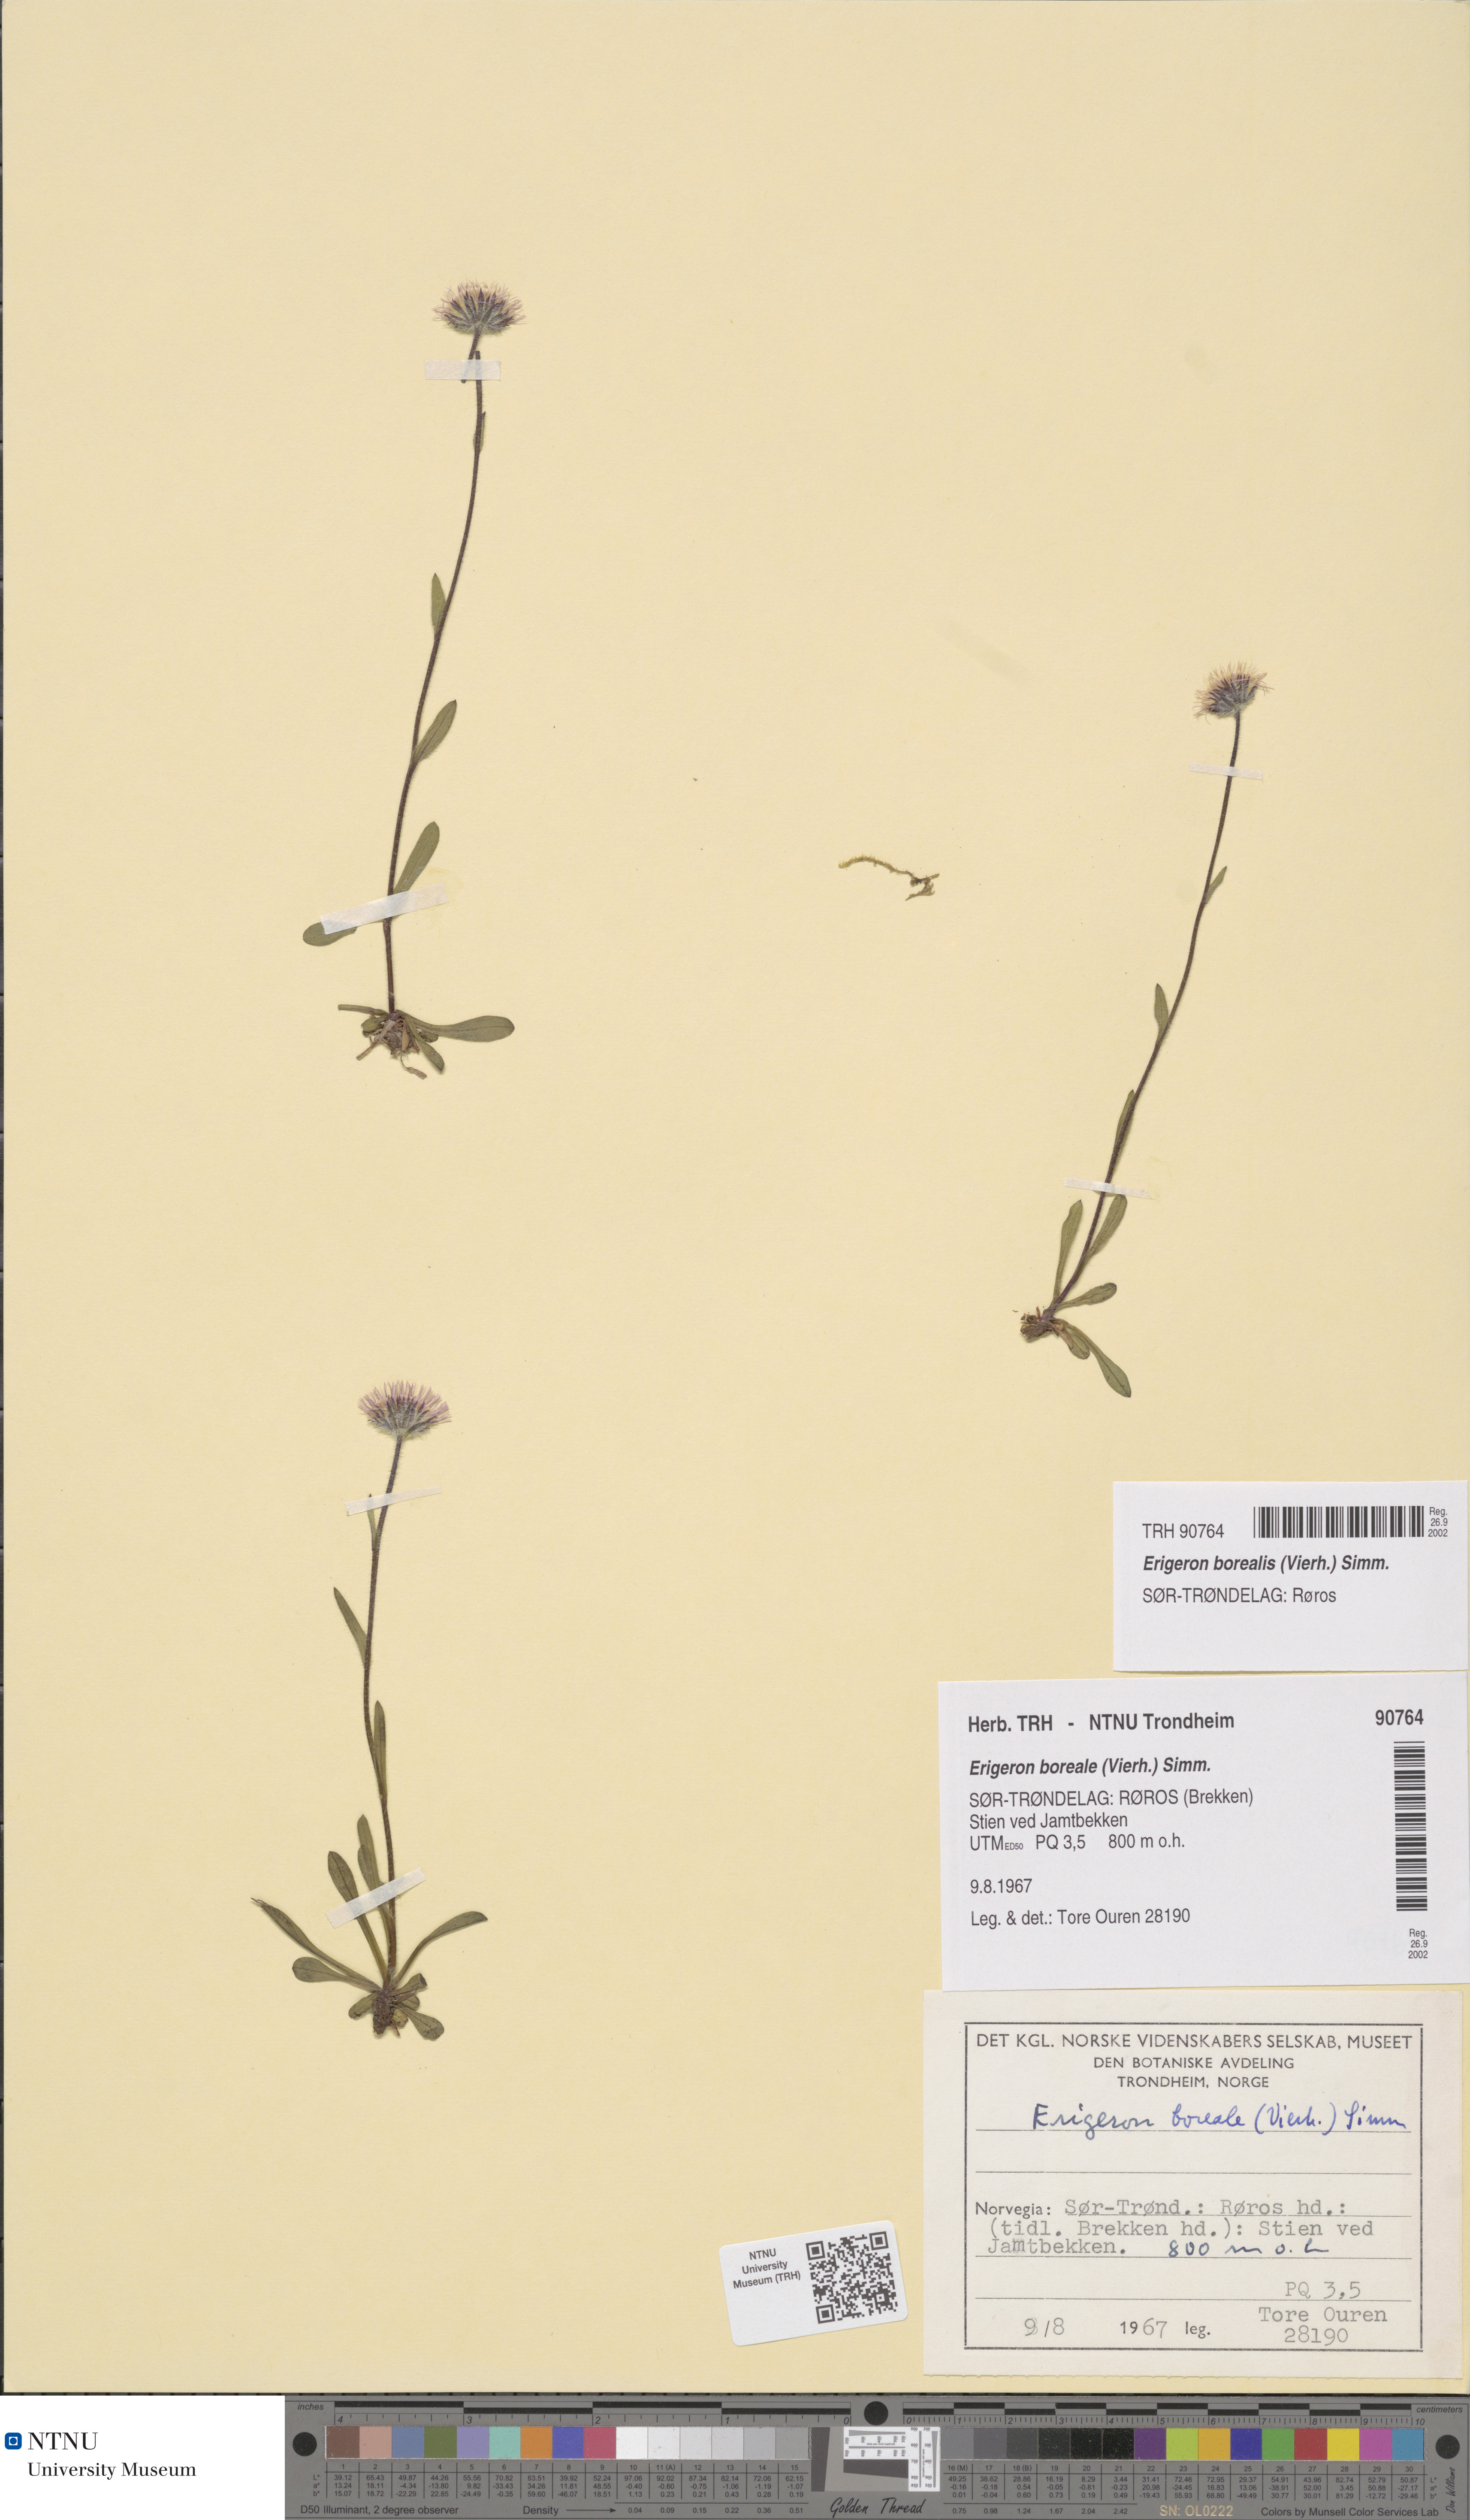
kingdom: Plantae
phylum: Tracheophyta
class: Magnoliopsida
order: Asterales
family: Asteraceae
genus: Erigeron
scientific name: Erigeron borealis
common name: Alpine fleabane
